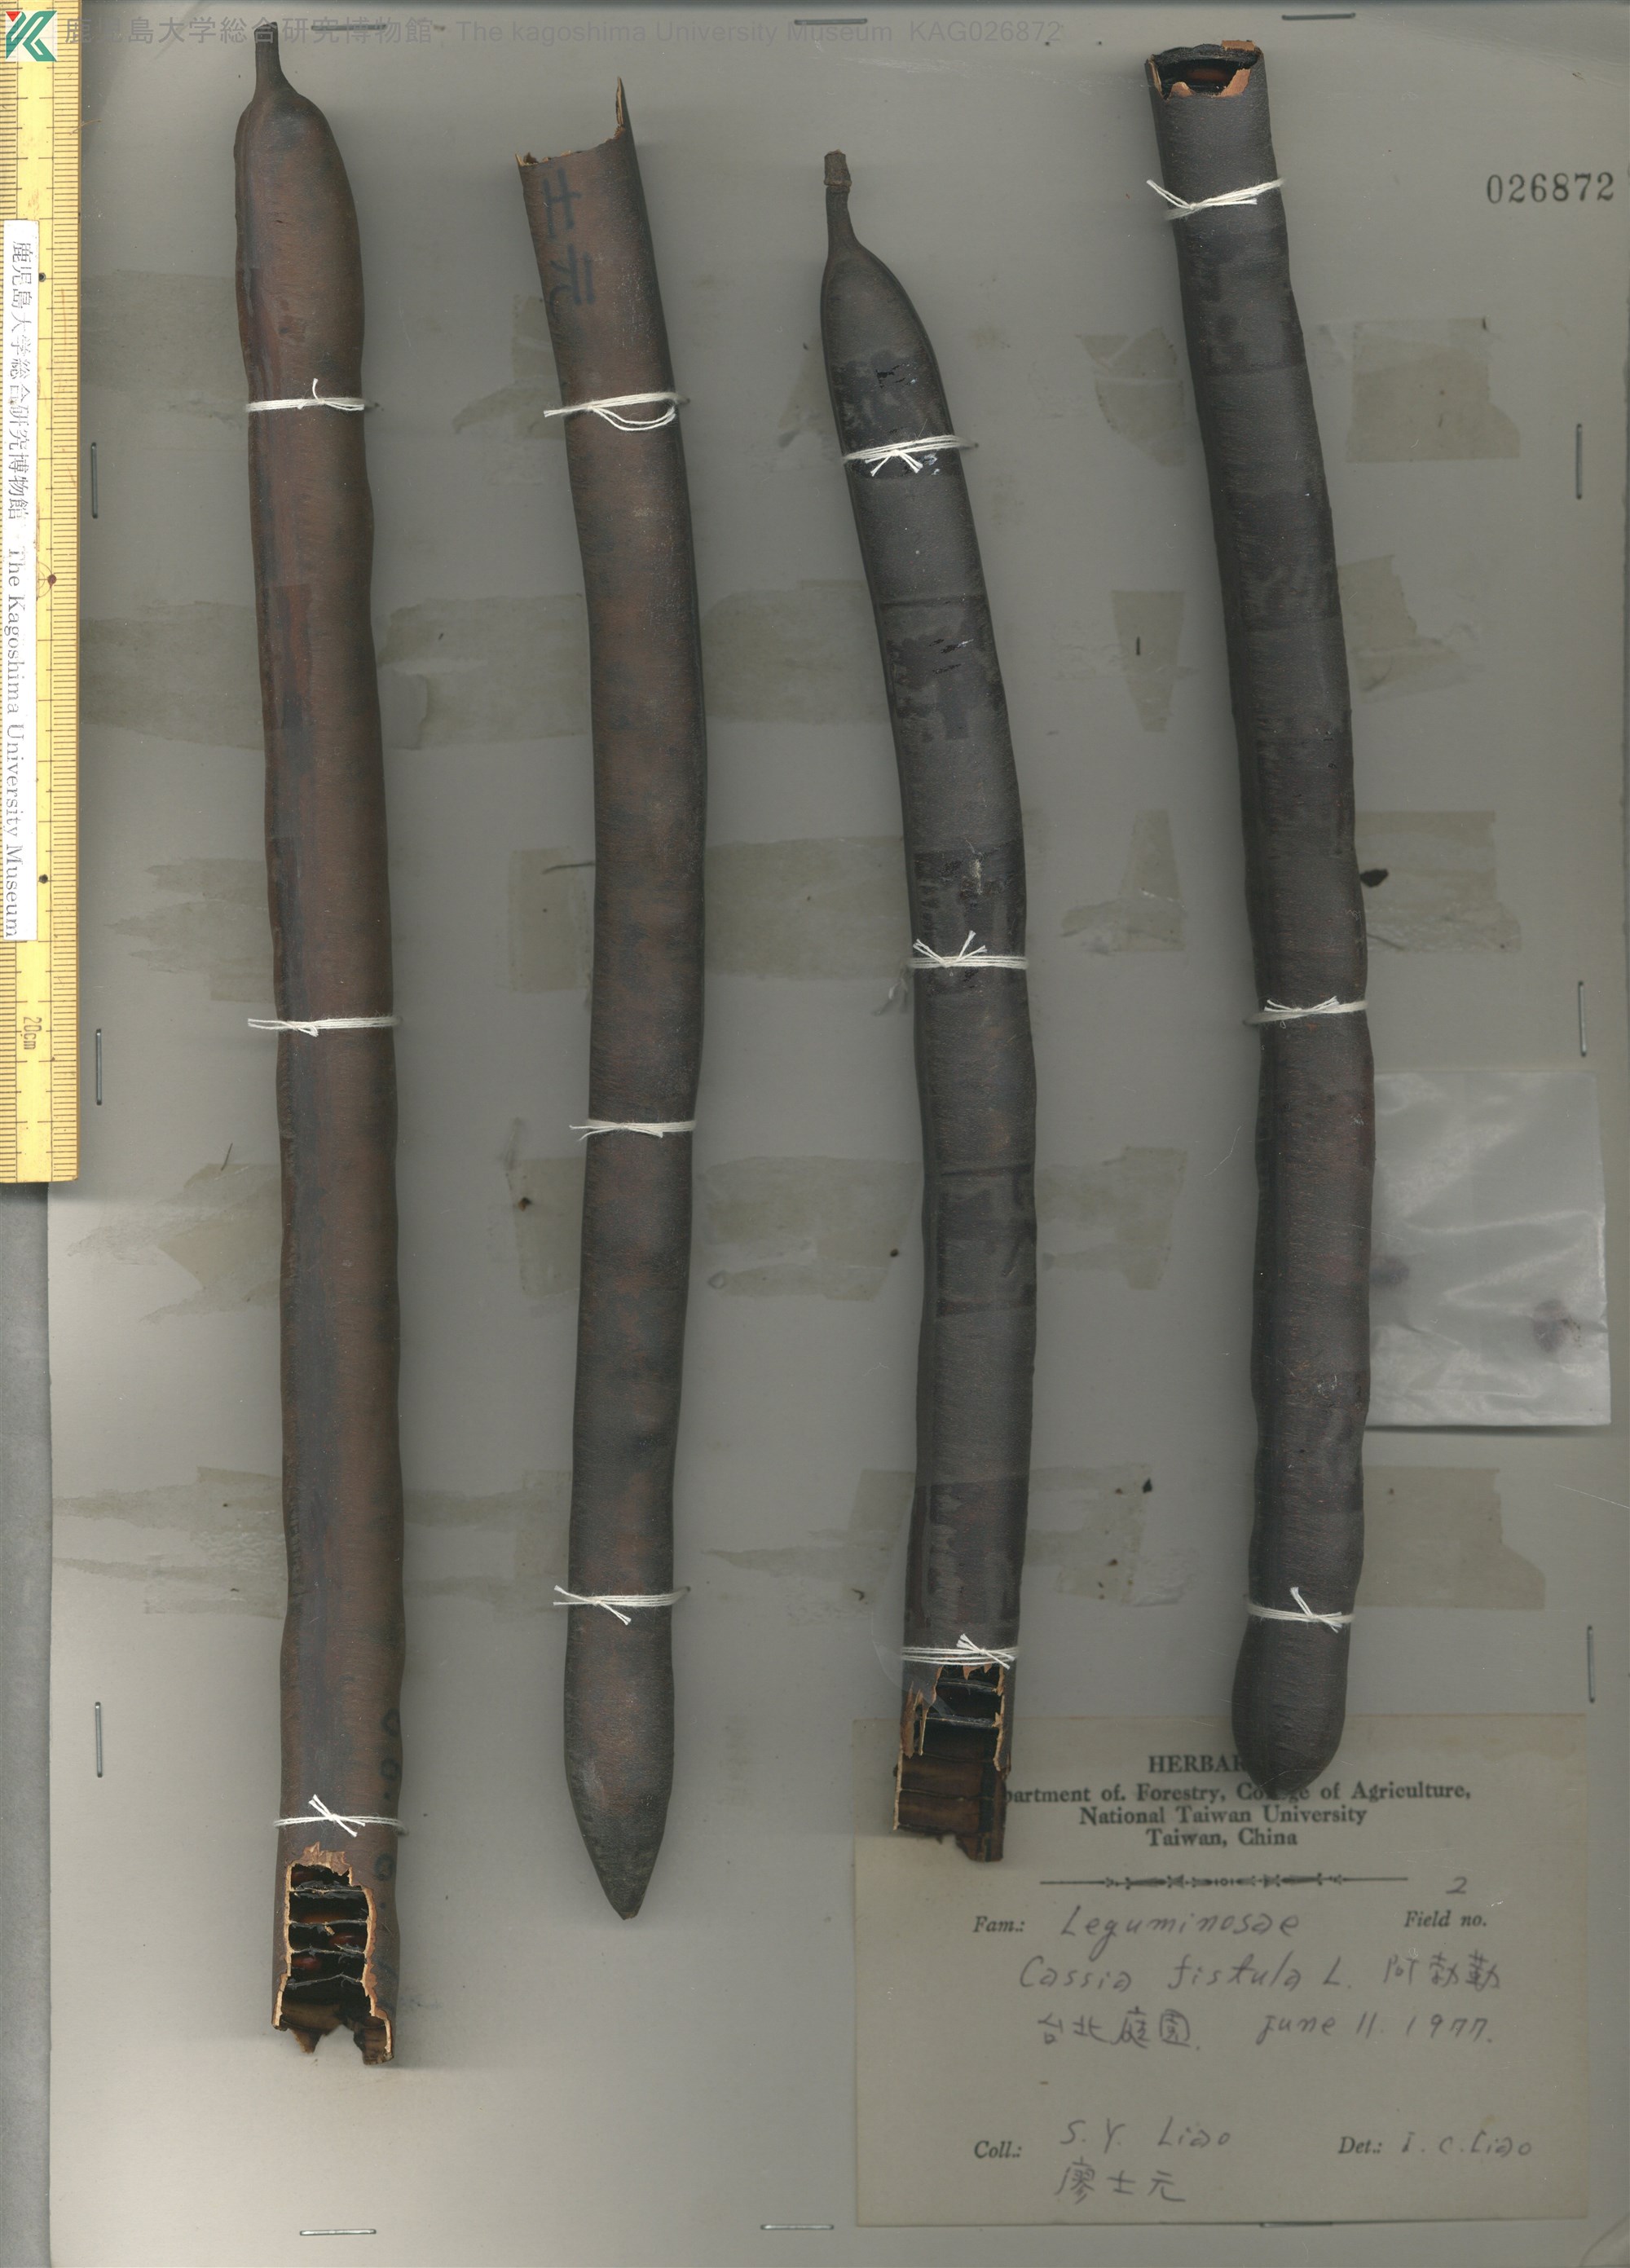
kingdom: Plantae
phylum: Tracheophyta
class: Magnoliopsida
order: Fabales
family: Fabaceae
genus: Cassia
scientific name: Cassia fistula
